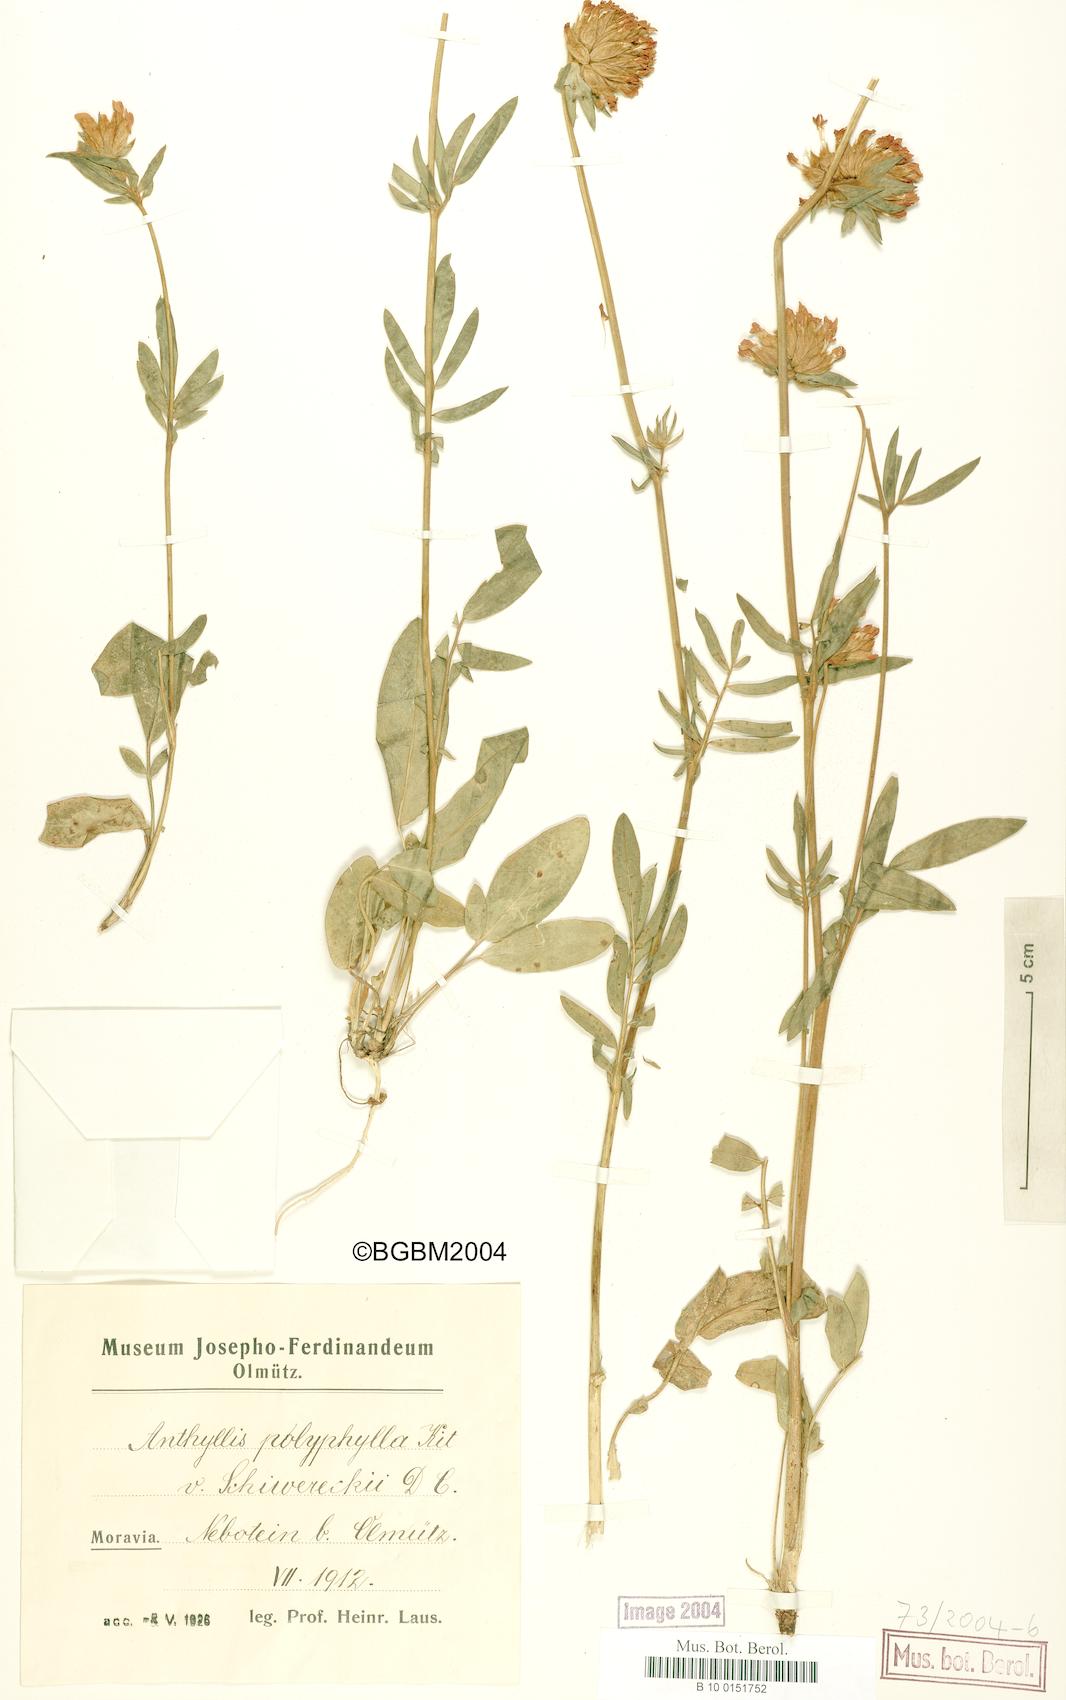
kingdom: Plantae
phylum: Tracheophyta
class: Magnoliopsida
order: Fabales
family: Fabaceae
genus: Anthyllis
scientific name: Anthyllis vulneraria
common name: Kidney vetch
